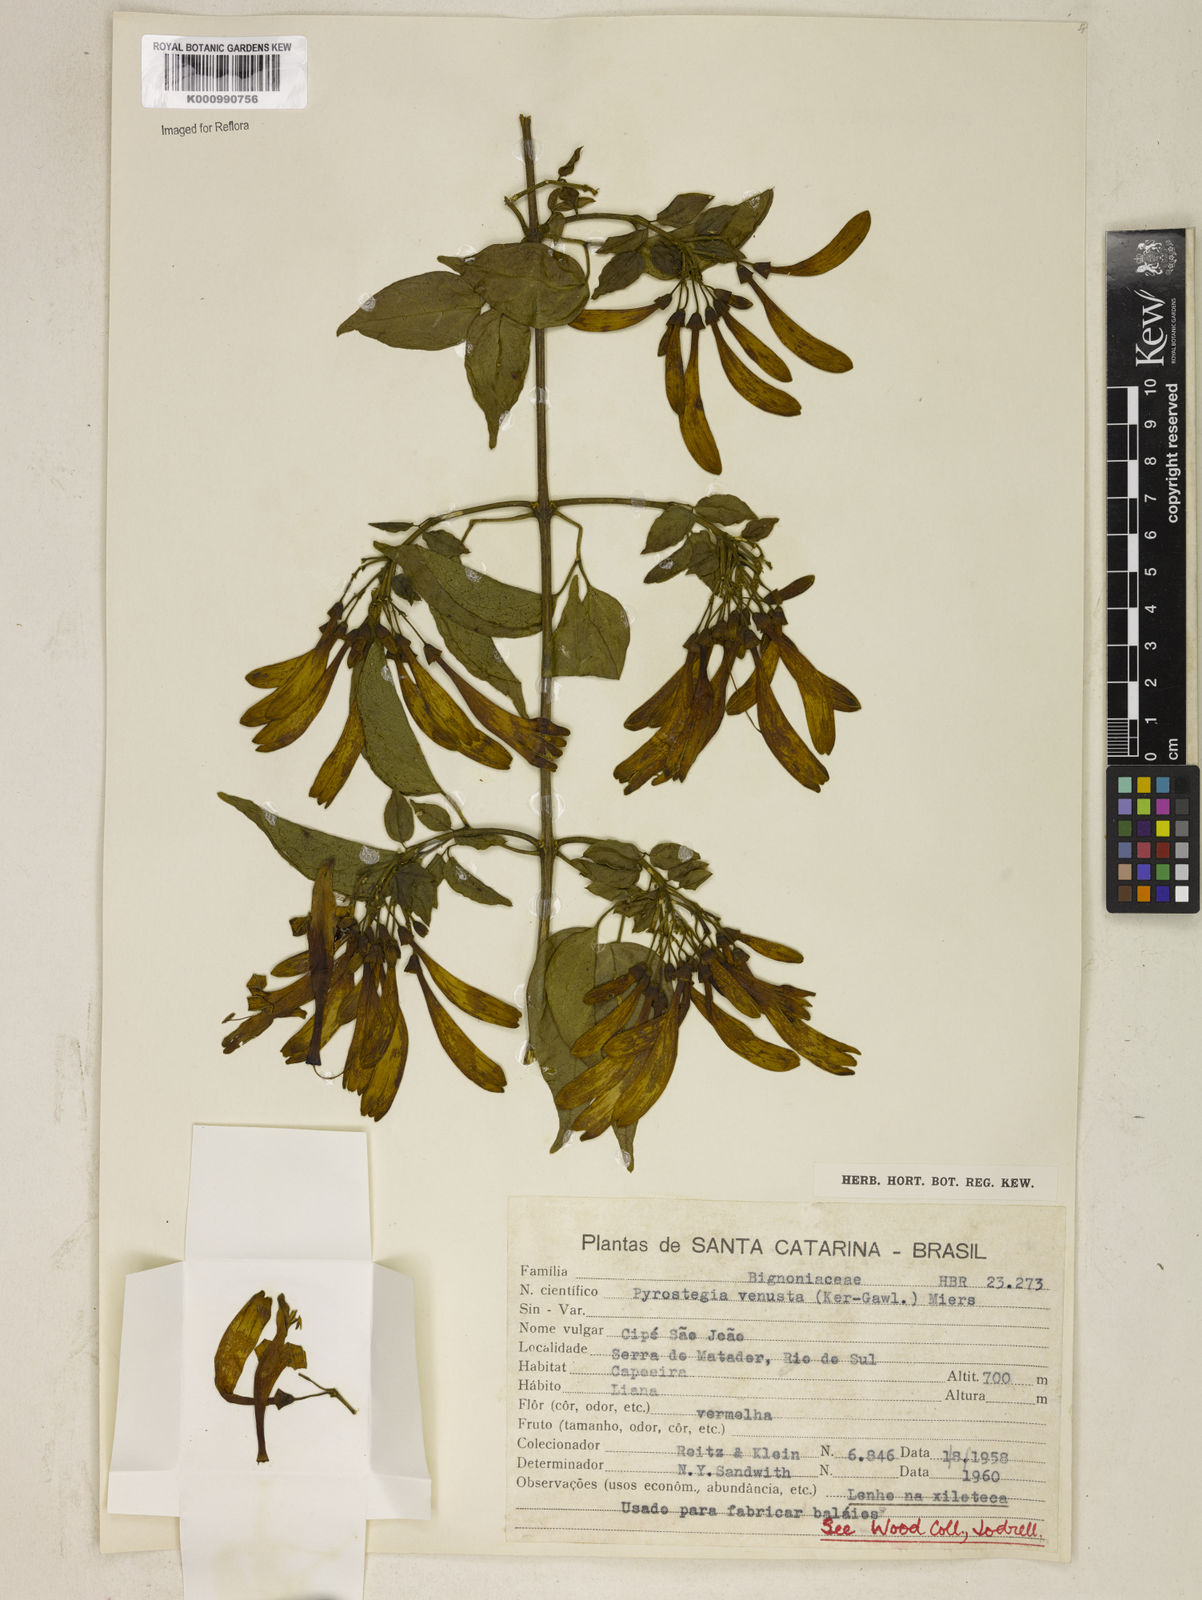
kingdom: Plantae
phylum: Tracheophyta
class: Magnoliopsida
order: Lamiales
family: Bignoniaceae
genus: Pyrostegia
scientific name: Pyrostegia venusta
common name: Flamevine
